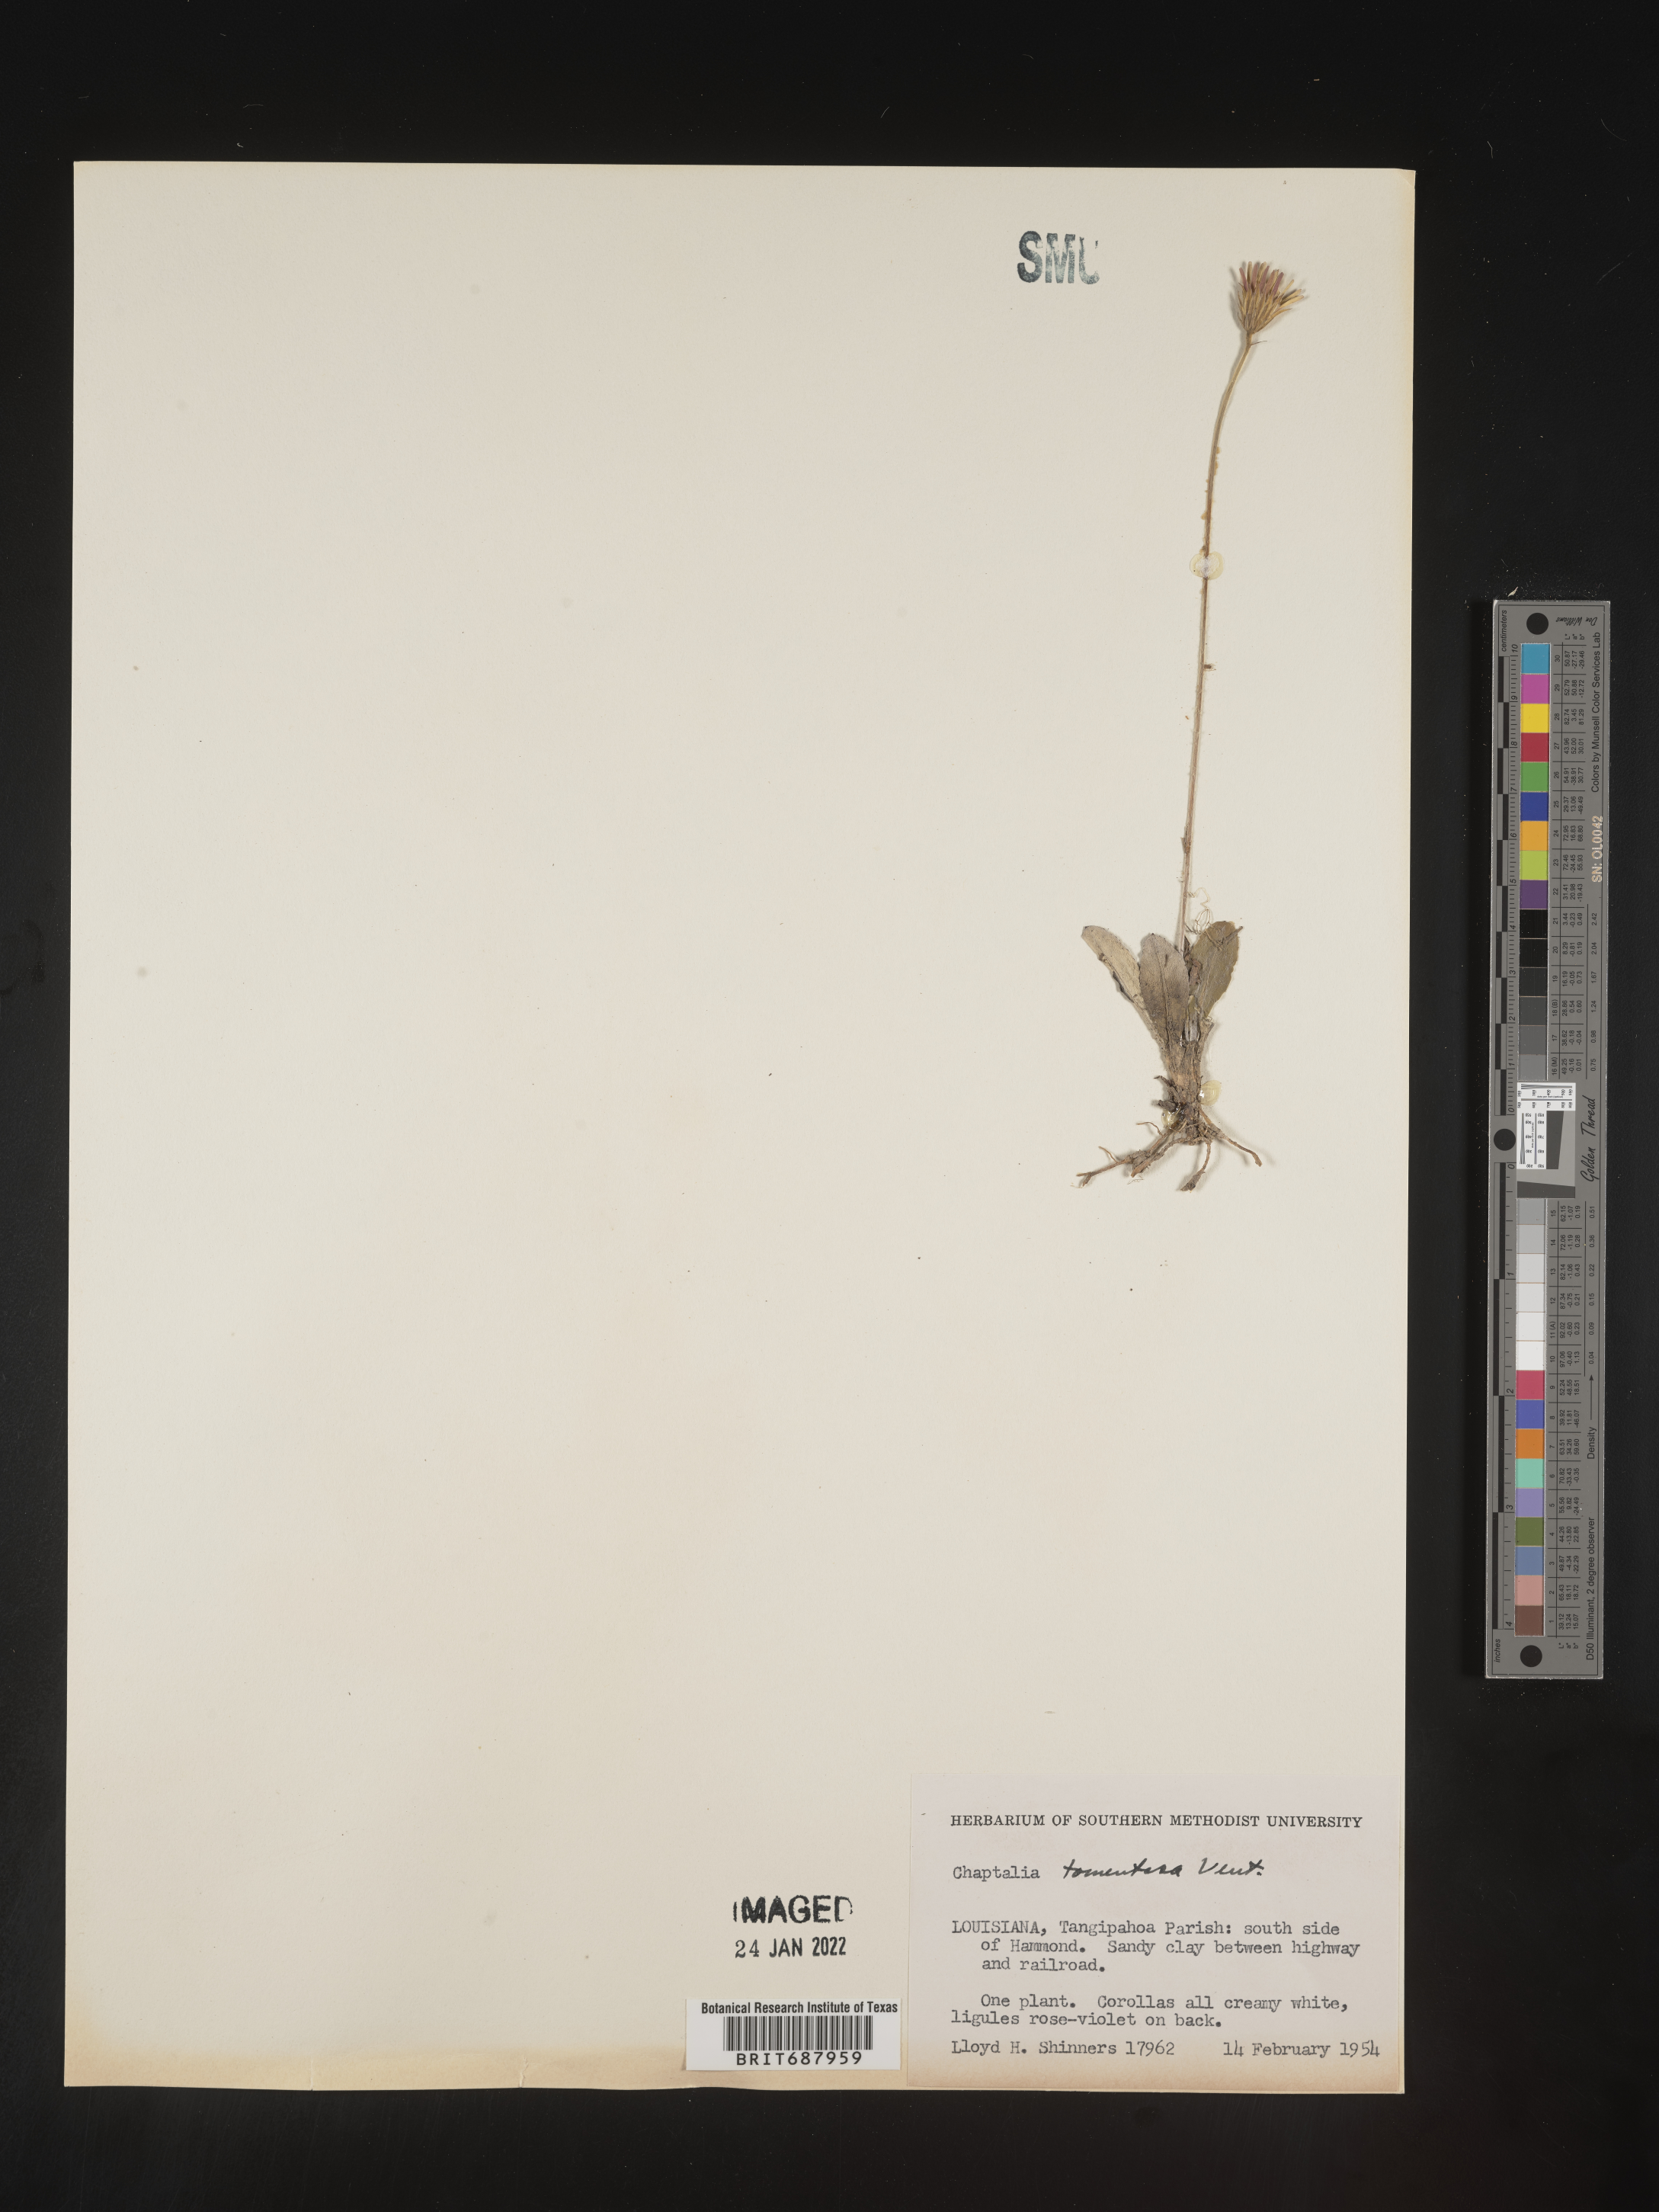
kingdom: Plantae
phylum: Tracheophyta
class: Magnoliopsida
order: Asterales
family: Asteraceae
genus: Chaptalia
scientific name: Chaptalia tomentosa
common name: Woolly sunbonnet
